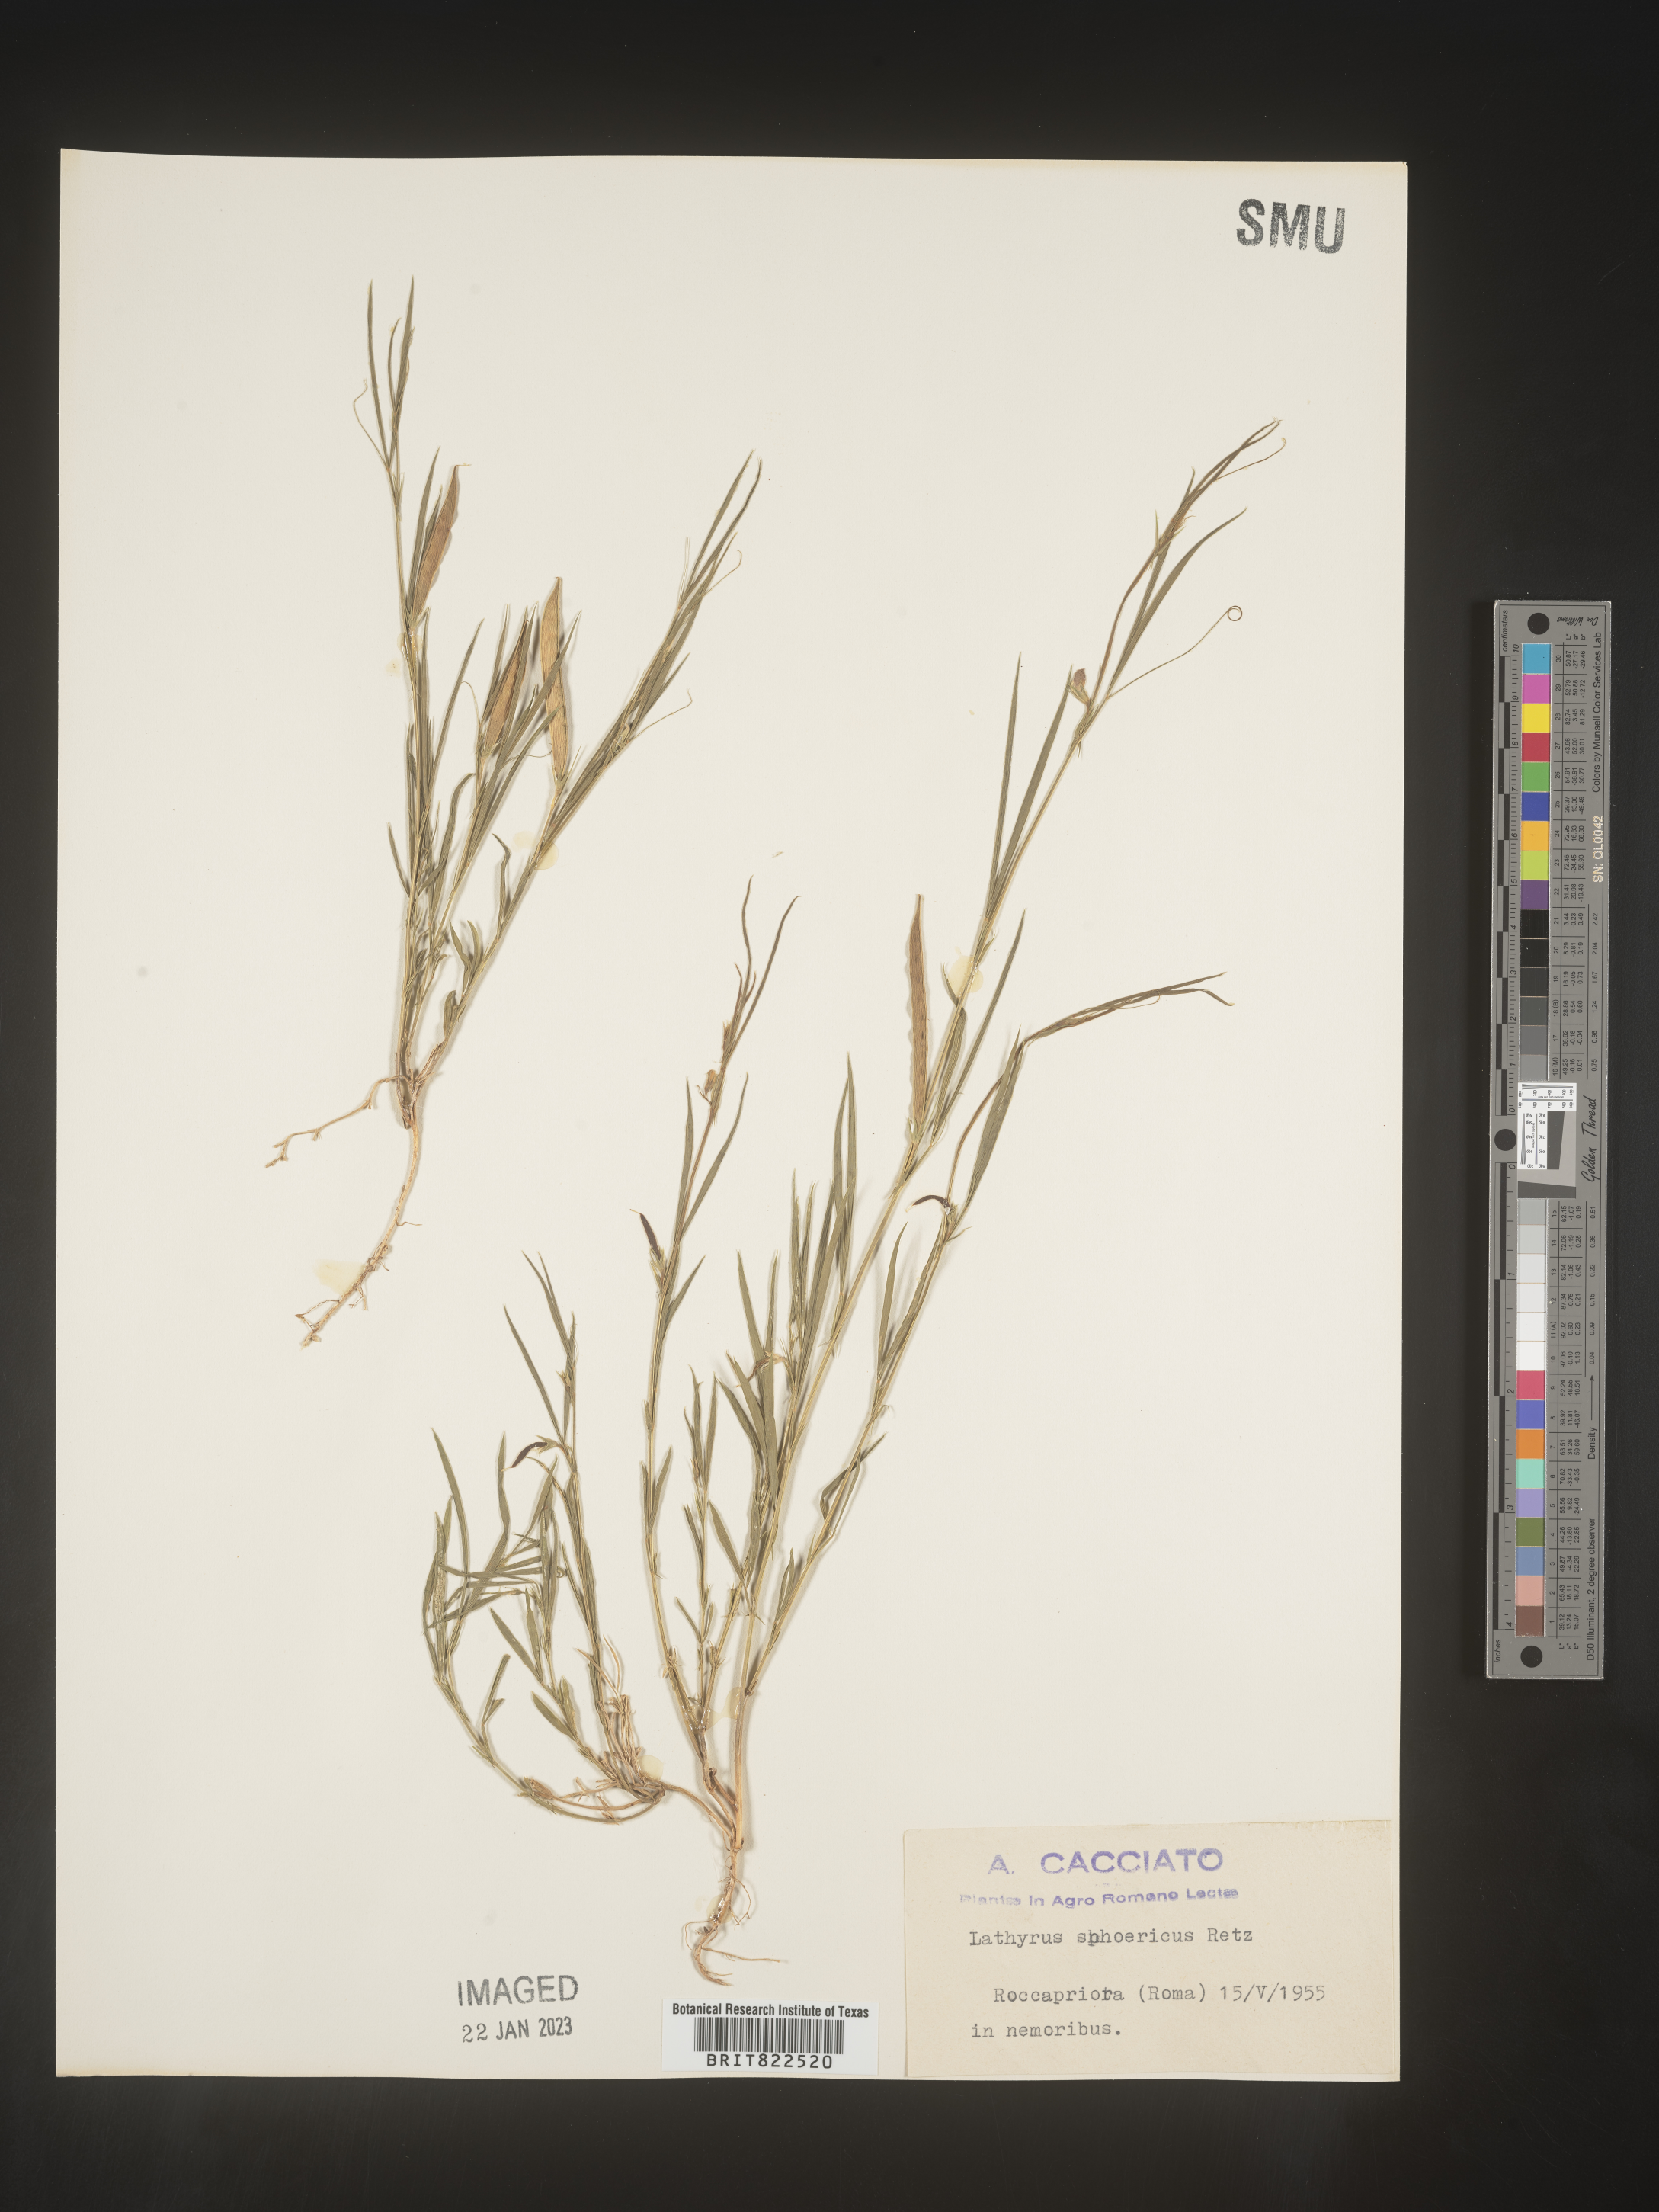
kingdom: Plantae
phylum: Tracheophyta
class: Magnoliopsida
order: Fabales
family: Fabaceae
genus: Lathyrus
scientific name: Lathyrus
